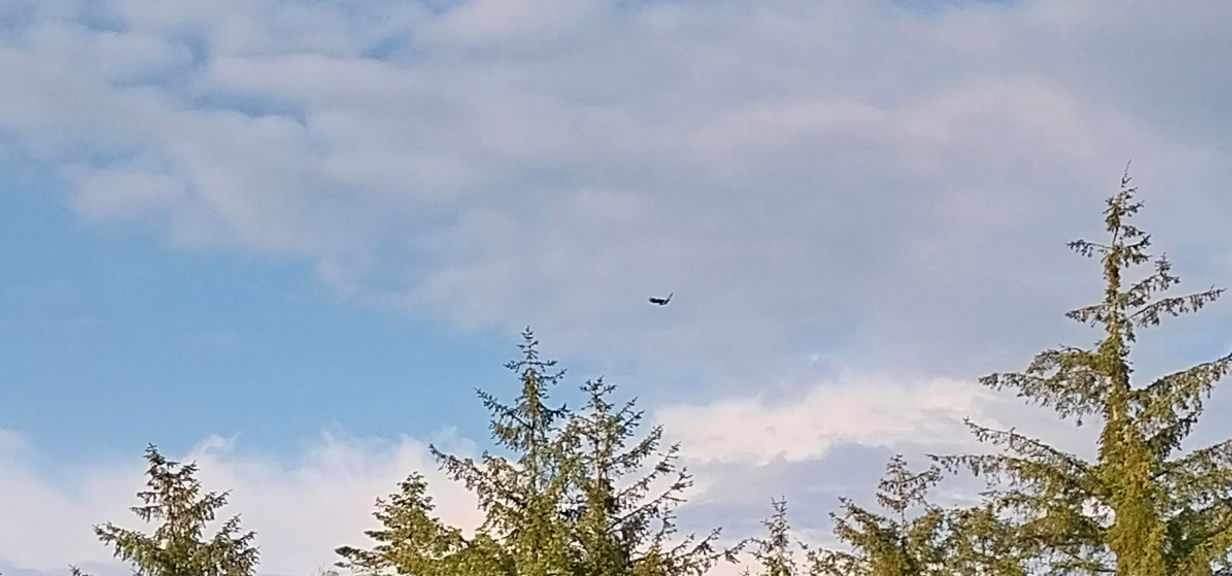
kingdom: Animalia
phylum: Chordata
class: Aves
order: Piciformes
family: Picidae
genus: Picus
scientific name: Picus viridis
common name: Grønspætte
